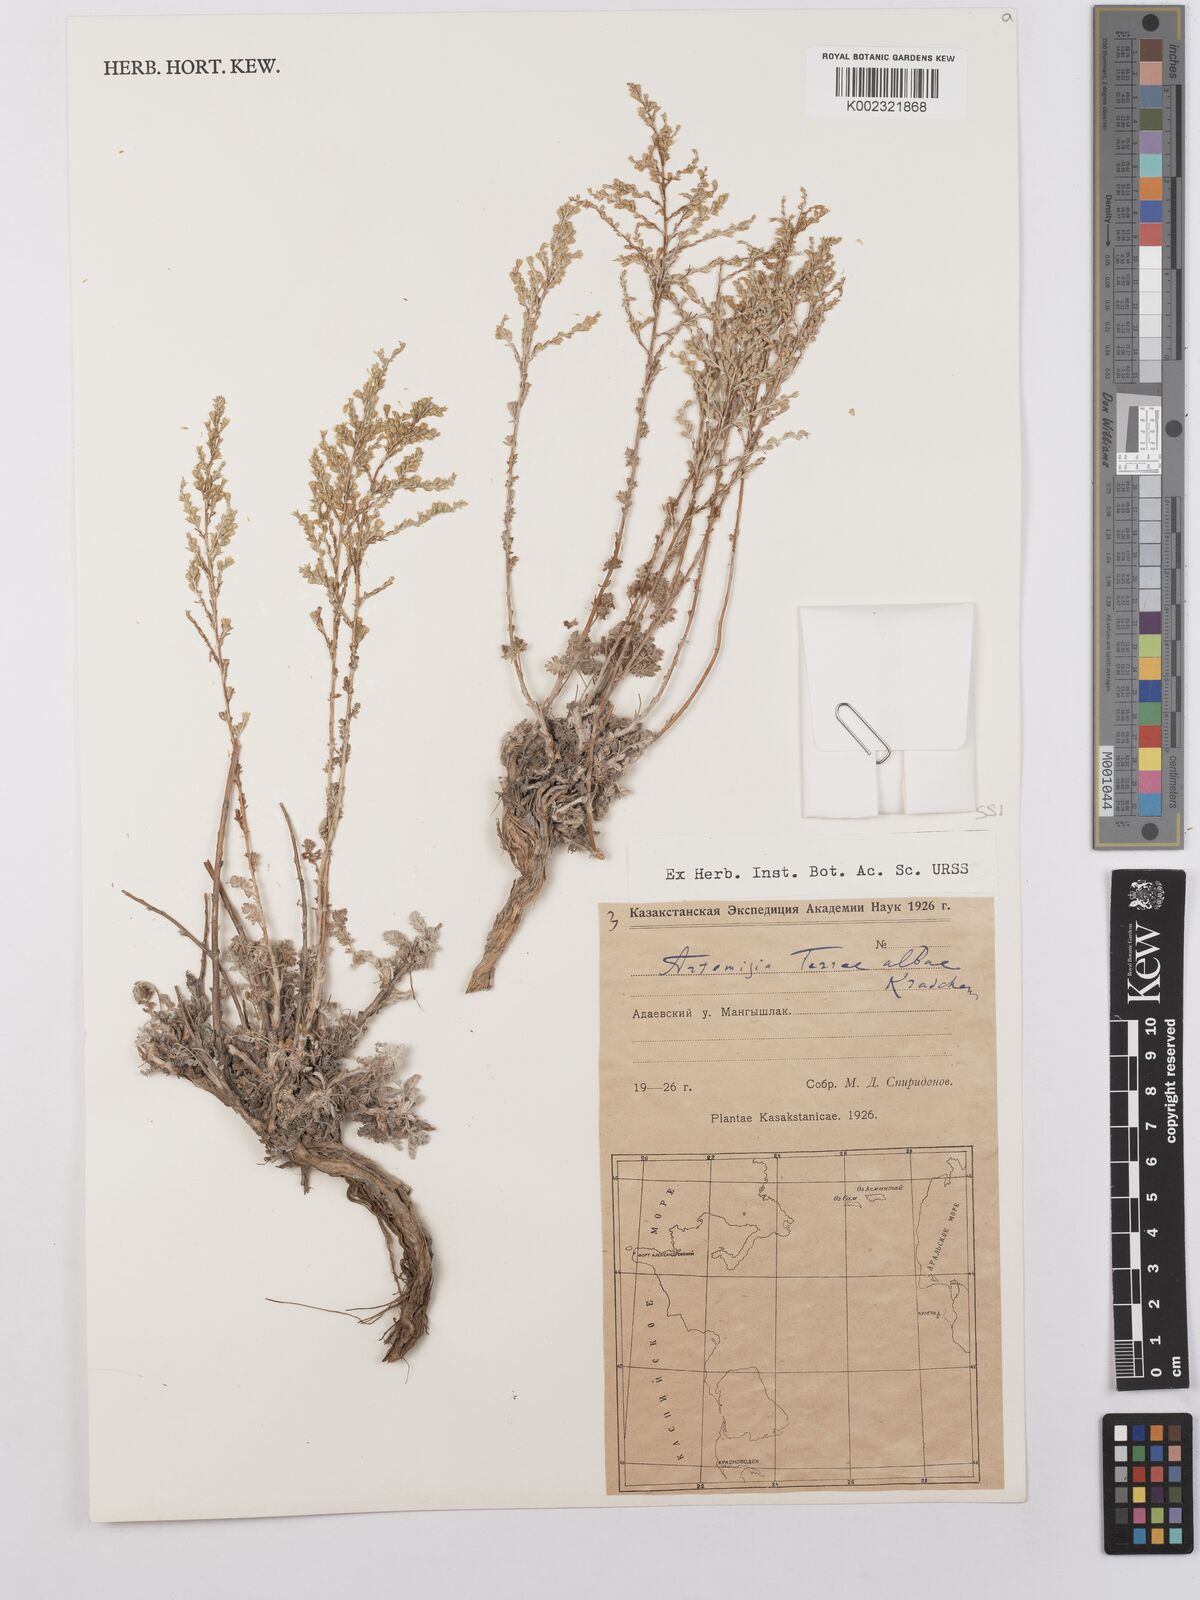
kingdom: Plantae
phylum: Tracheophyta
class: Magnoliopsida
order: Asterales
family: Asteraceae
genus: Artemisia
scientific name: Artemisia terrae-albae
